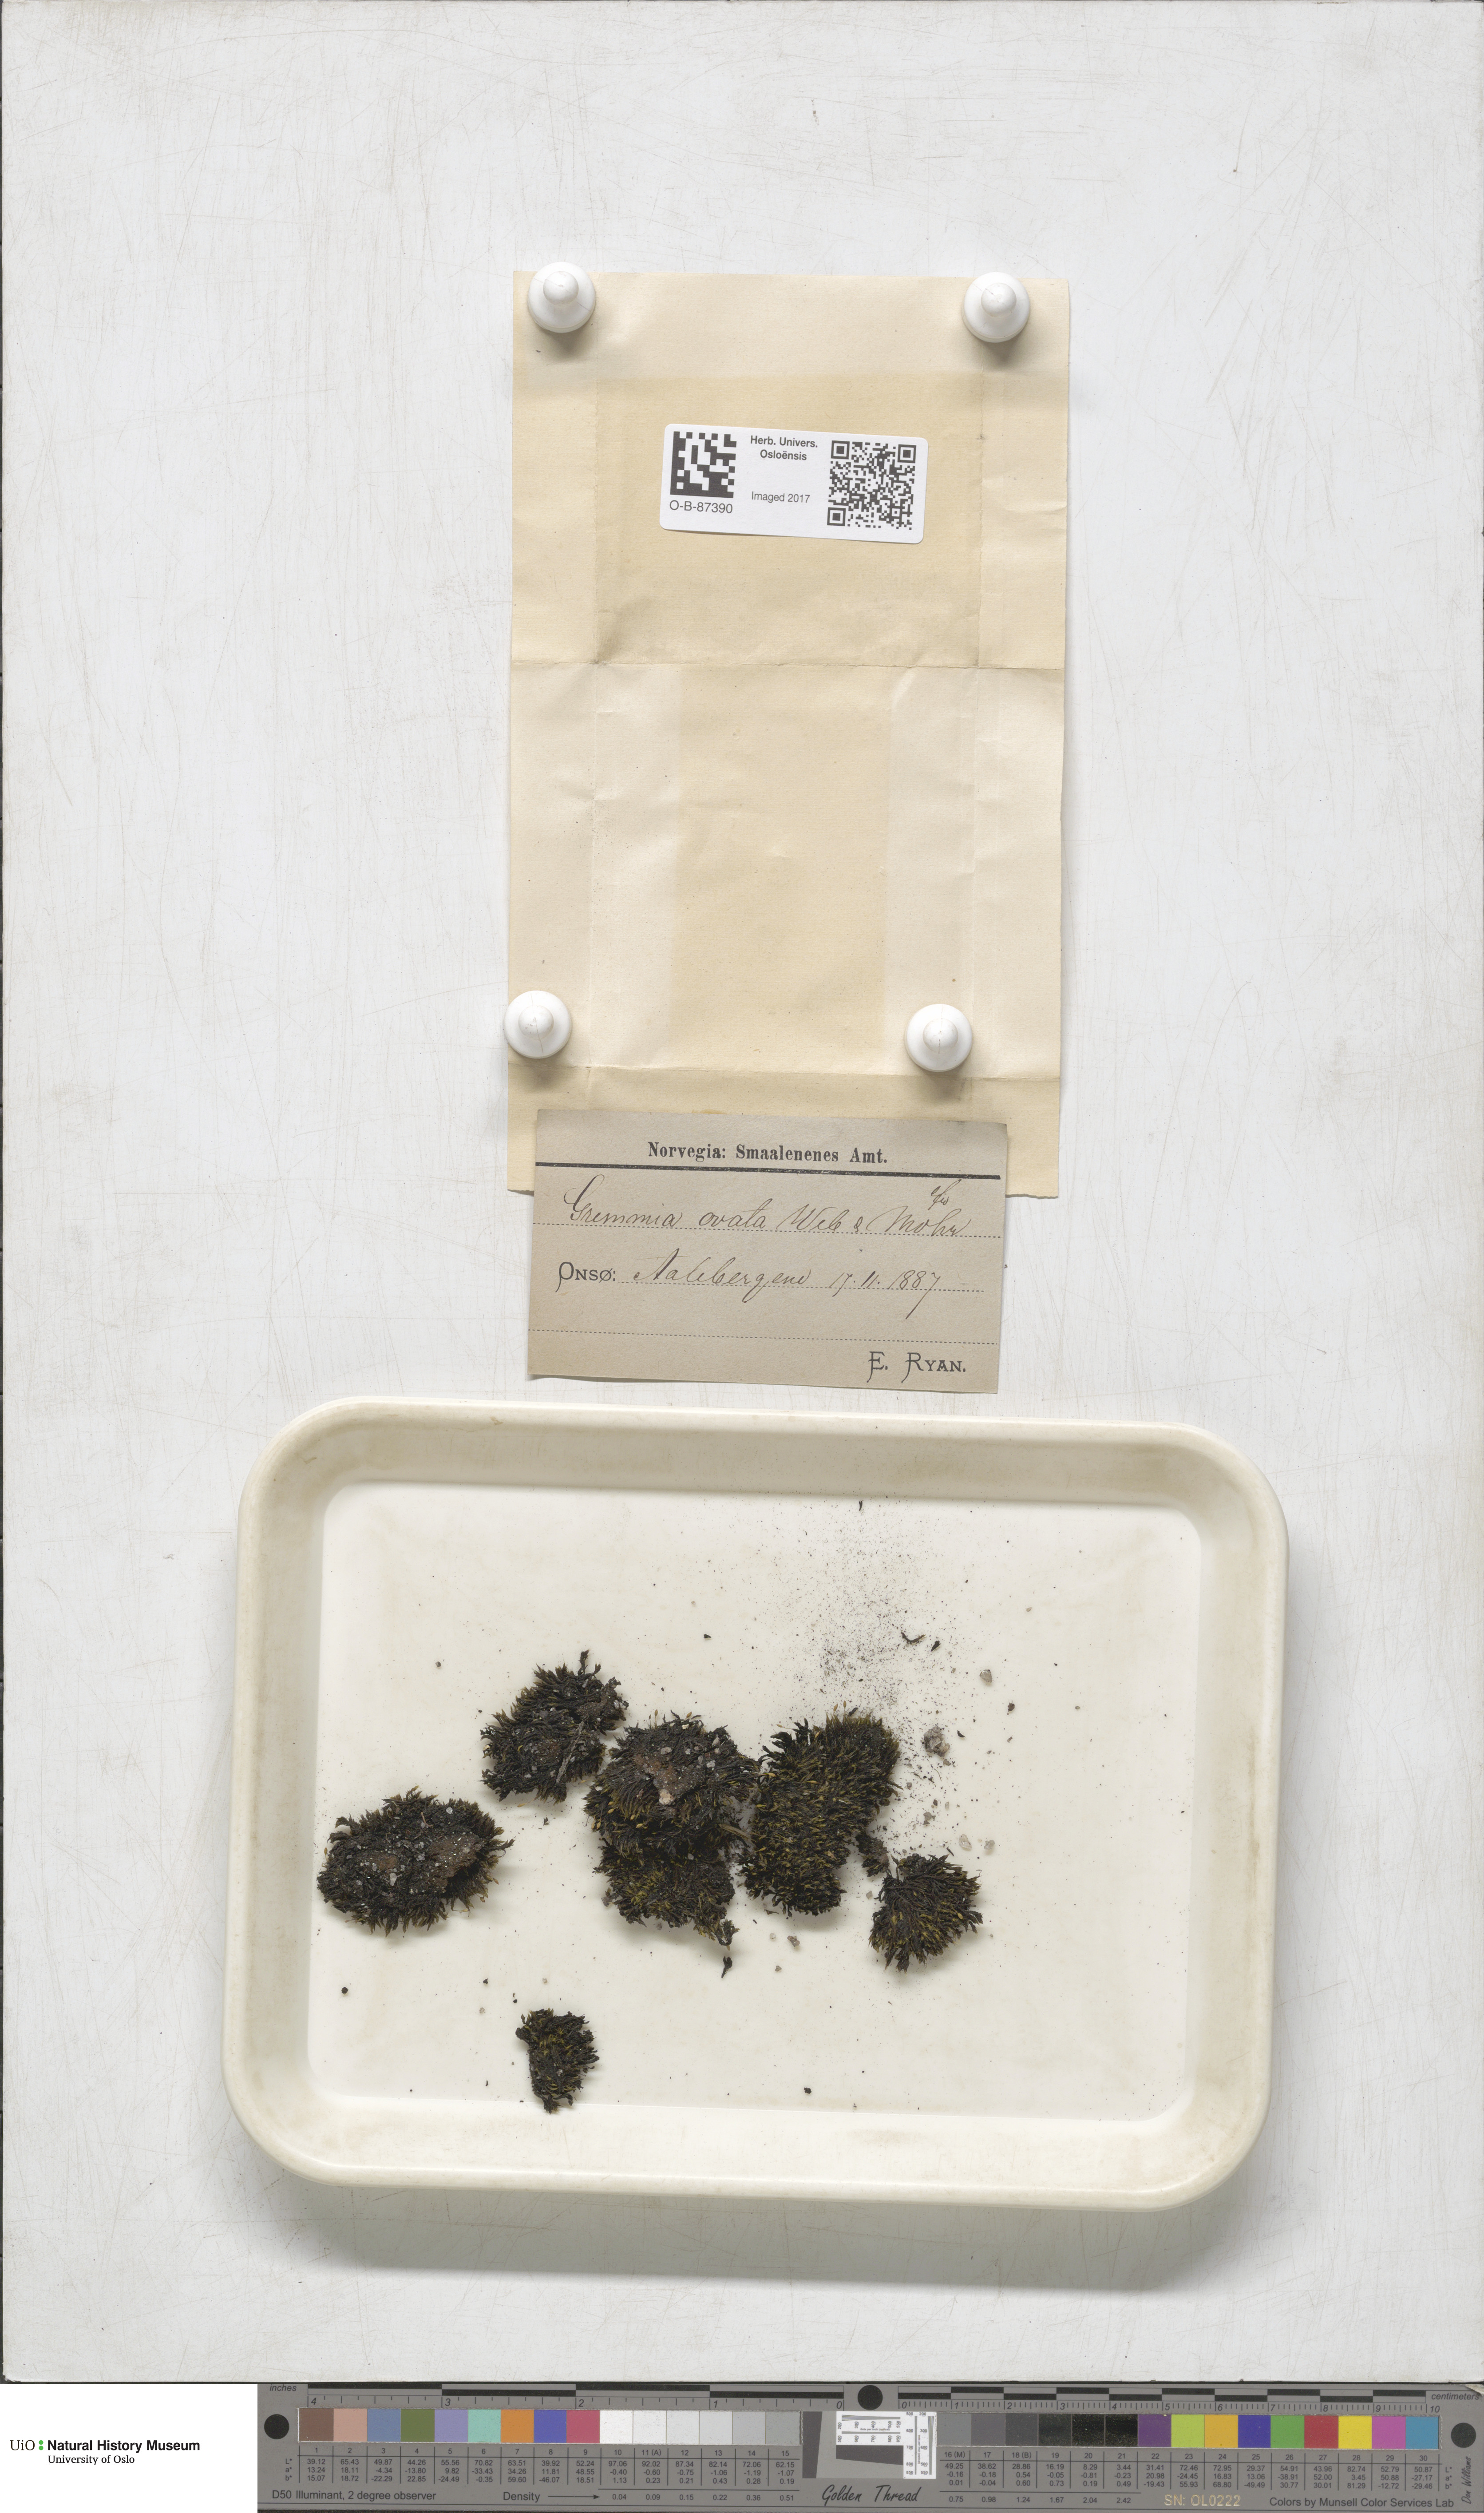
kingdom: Plantae
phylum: Bryophyta
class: Bryopsida
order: Grimmiales
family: Grimmiaceae
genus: Grimmia
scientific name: Grimmia ovalis
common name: Oval grimmia
